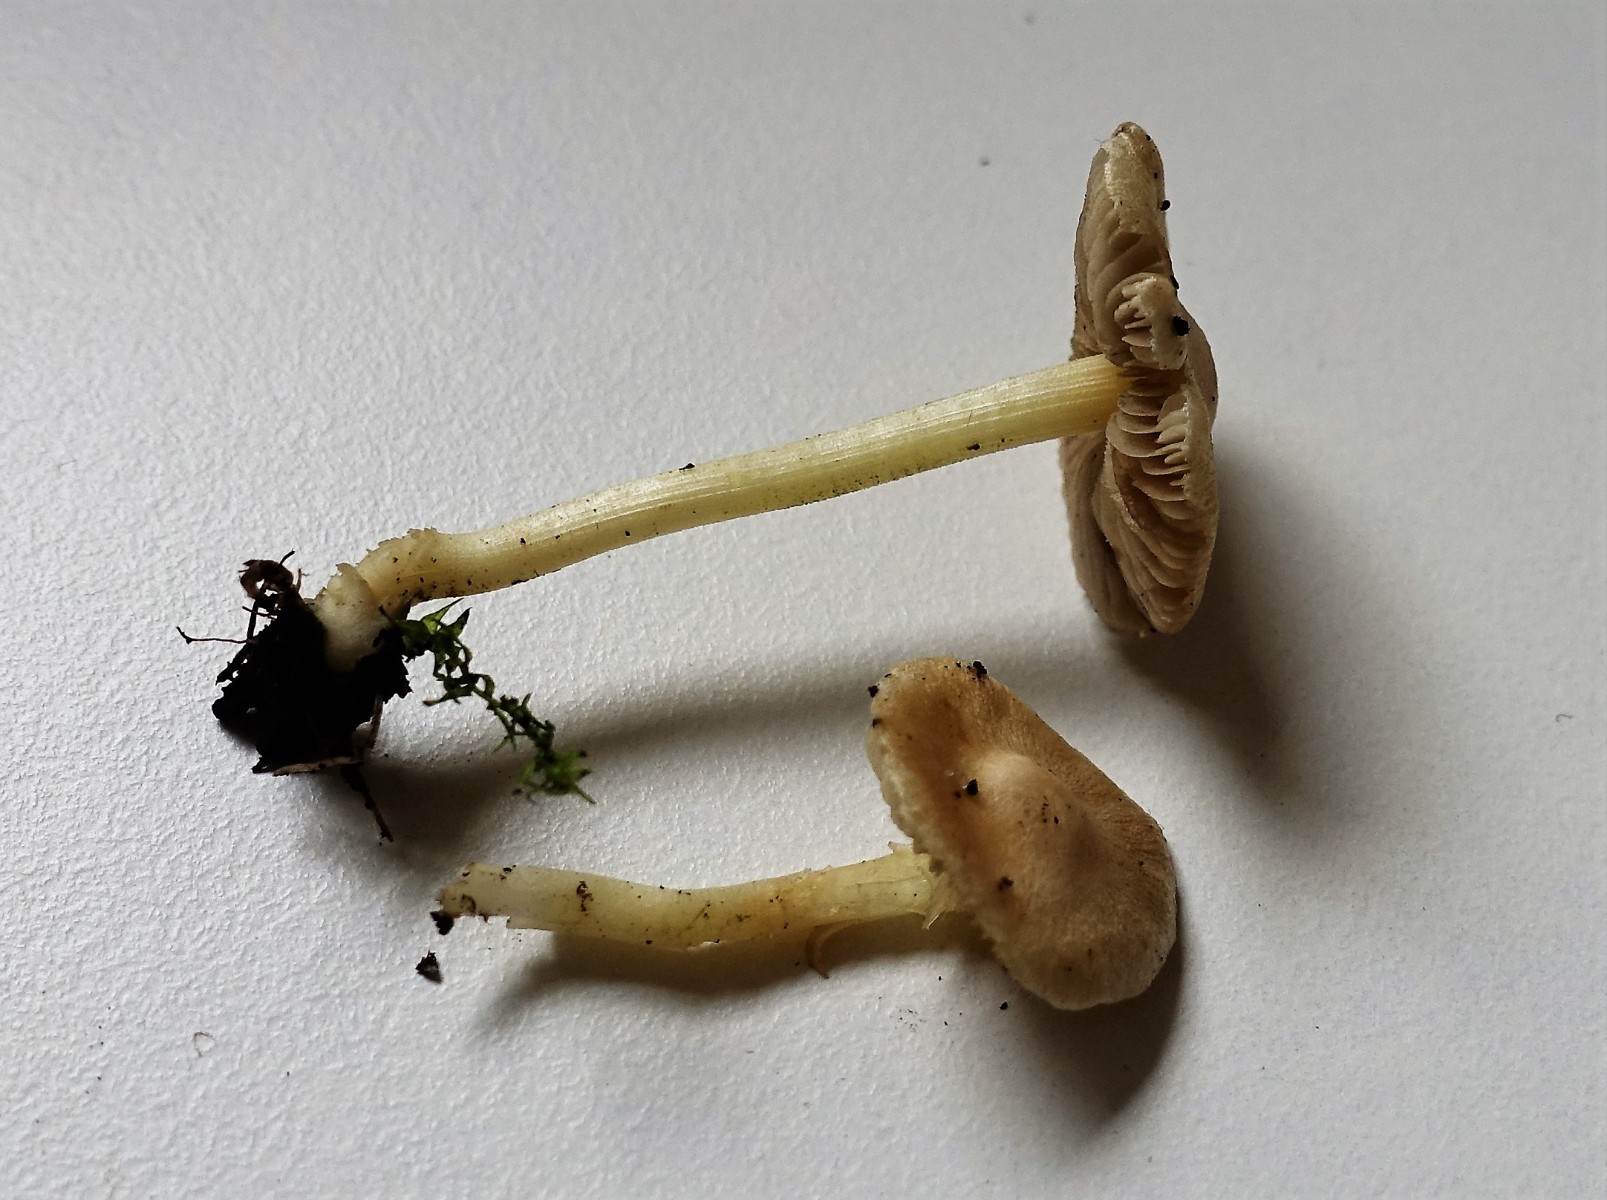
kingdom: Fungi
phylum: Basidiomycota
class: Agaricomycetes
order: Agaricales
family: Inocybaceae
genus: Inocybe
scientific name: Inocybe paludinella
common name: mose-trævlhat
